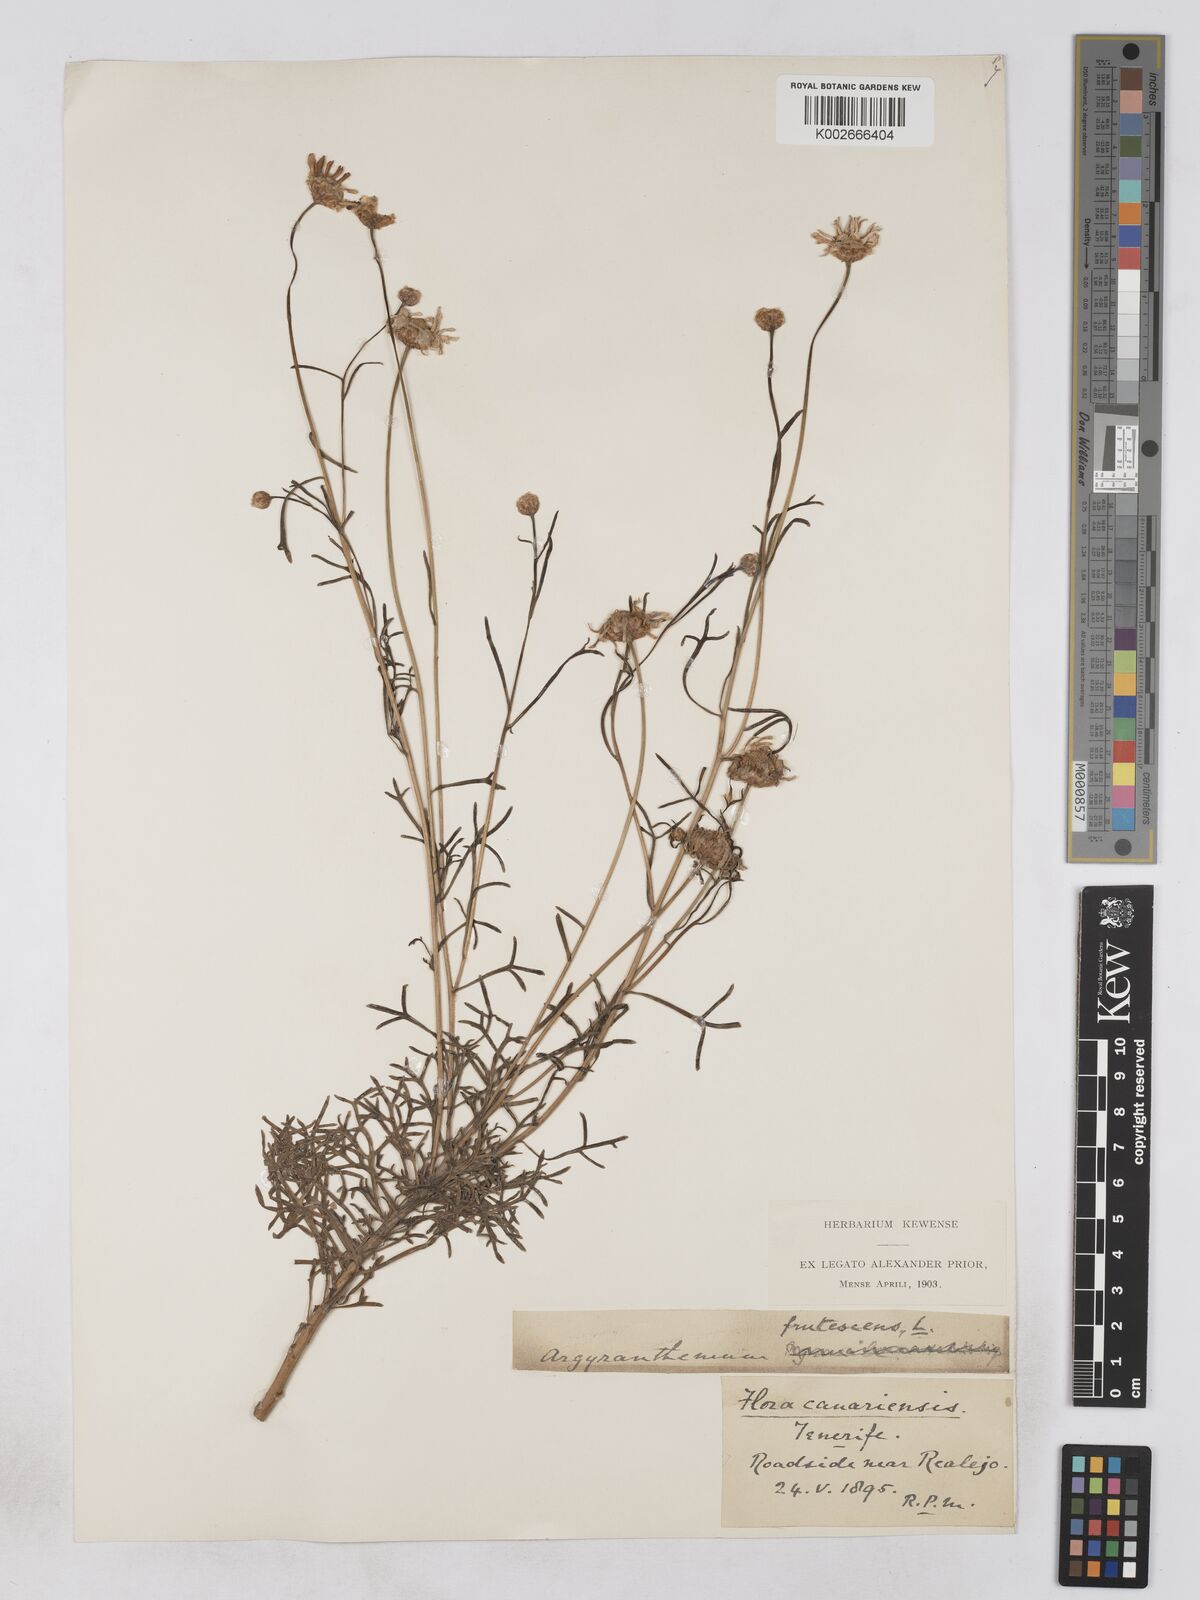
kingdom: Plantae
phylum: Tracheophyta
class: Magnoliopsida
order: Asterales
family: Asteraceae
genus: Argyranthemum
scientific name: Argyranthemum frutescens
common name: Paris daisy
